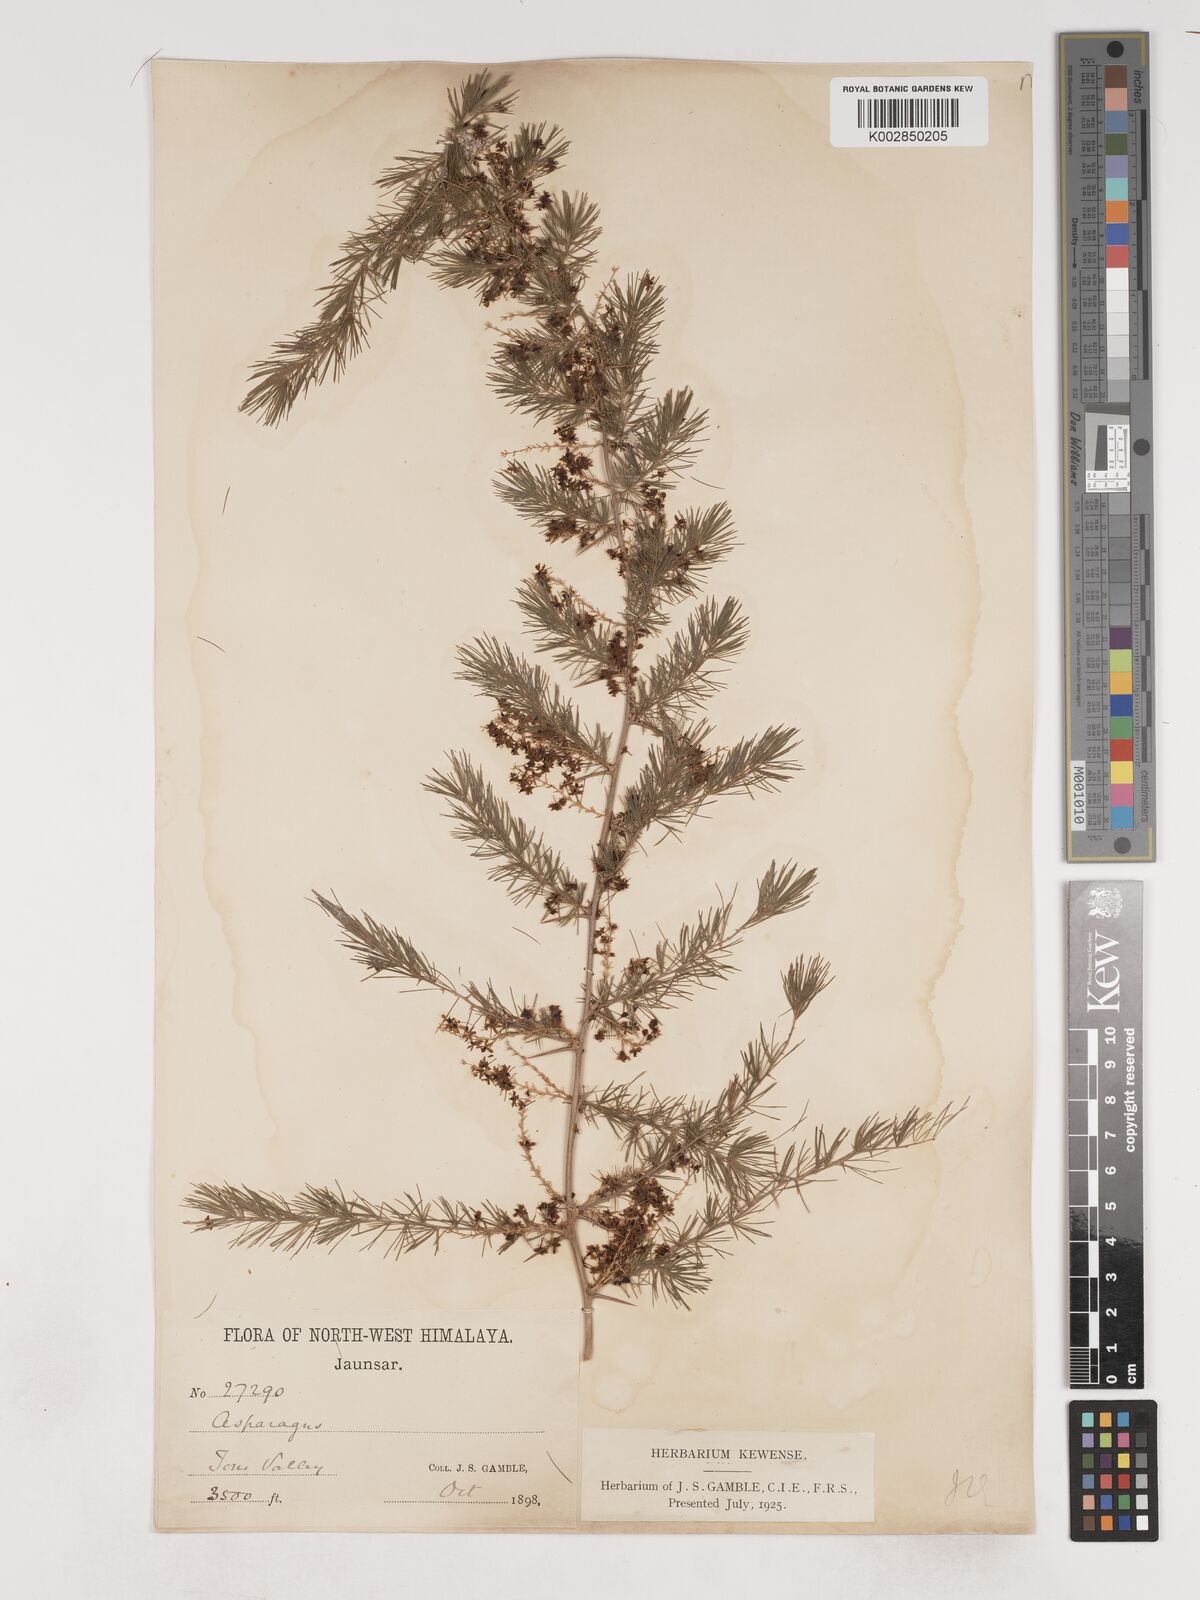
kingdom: Plantae
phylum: Tracheophyta
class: Liliopsida
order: Asparagales
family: Asparagaceae
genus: Asparagus
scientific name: Asparagus adscendens
